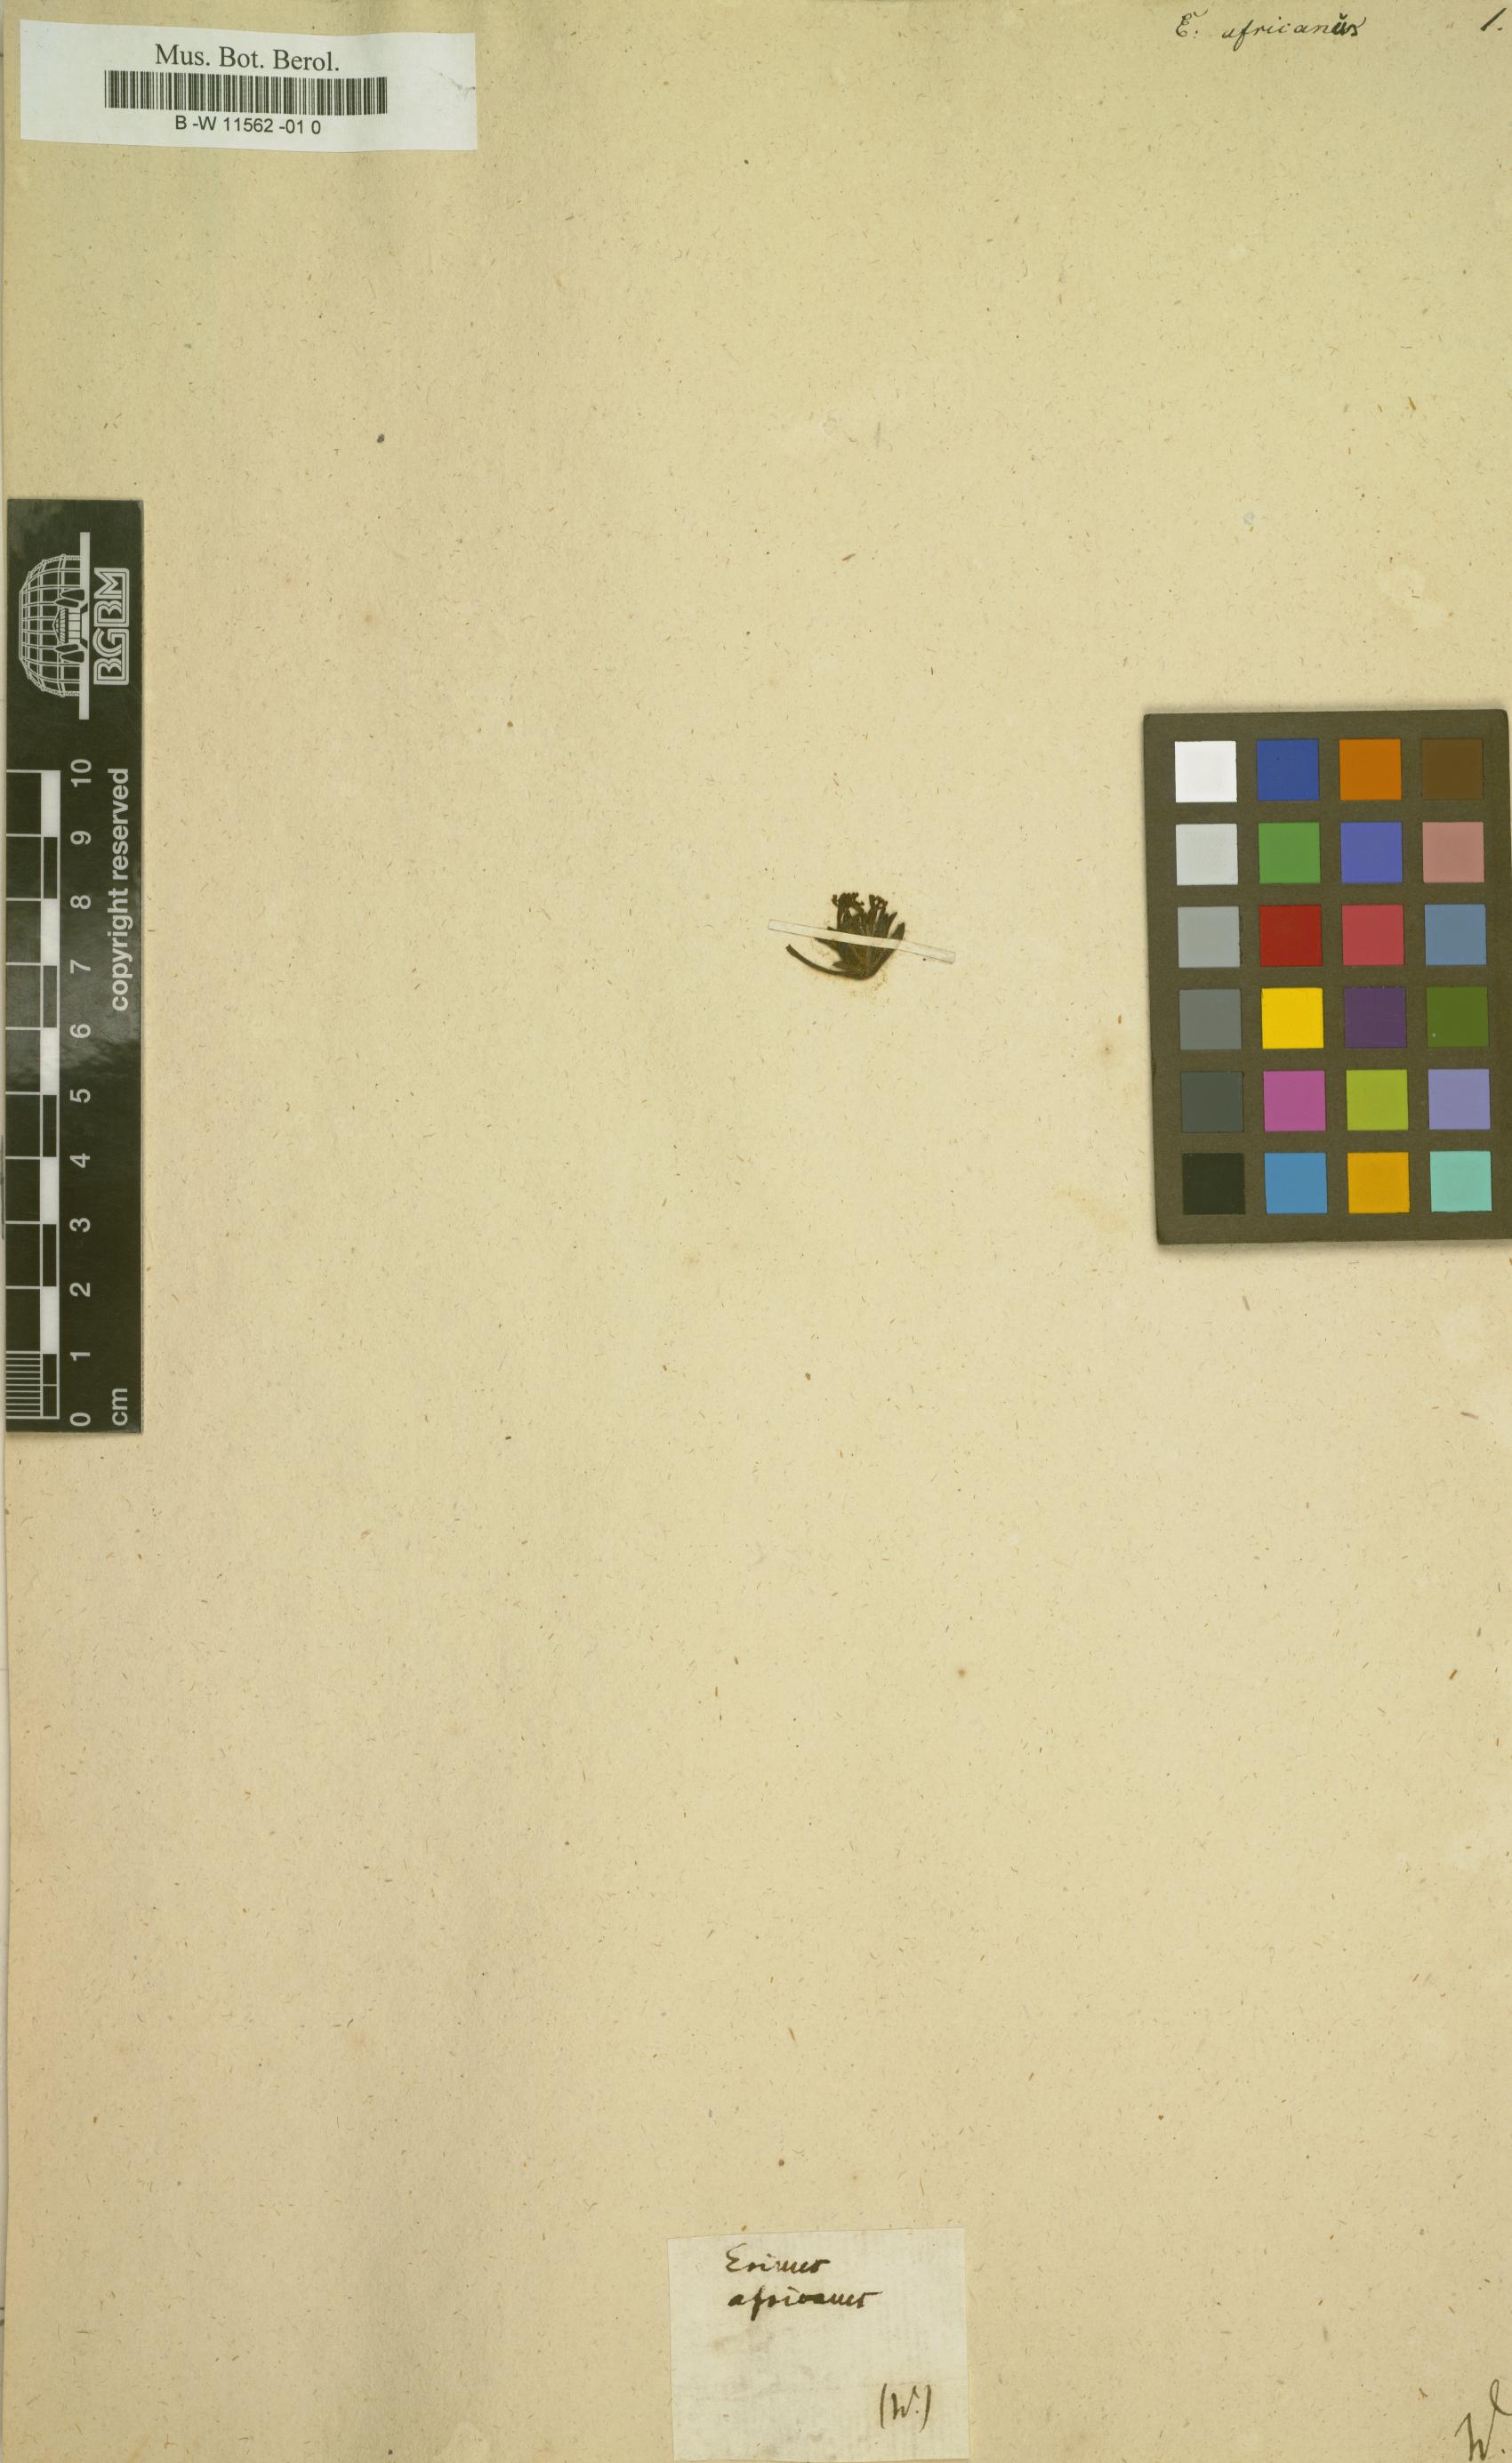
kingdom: Plantae
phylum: Tracheophyta
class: Magnoliopsida
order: Lamiales
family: Scrophulariaceae
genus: Zaluzianskya
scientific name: Zaluzianskya
